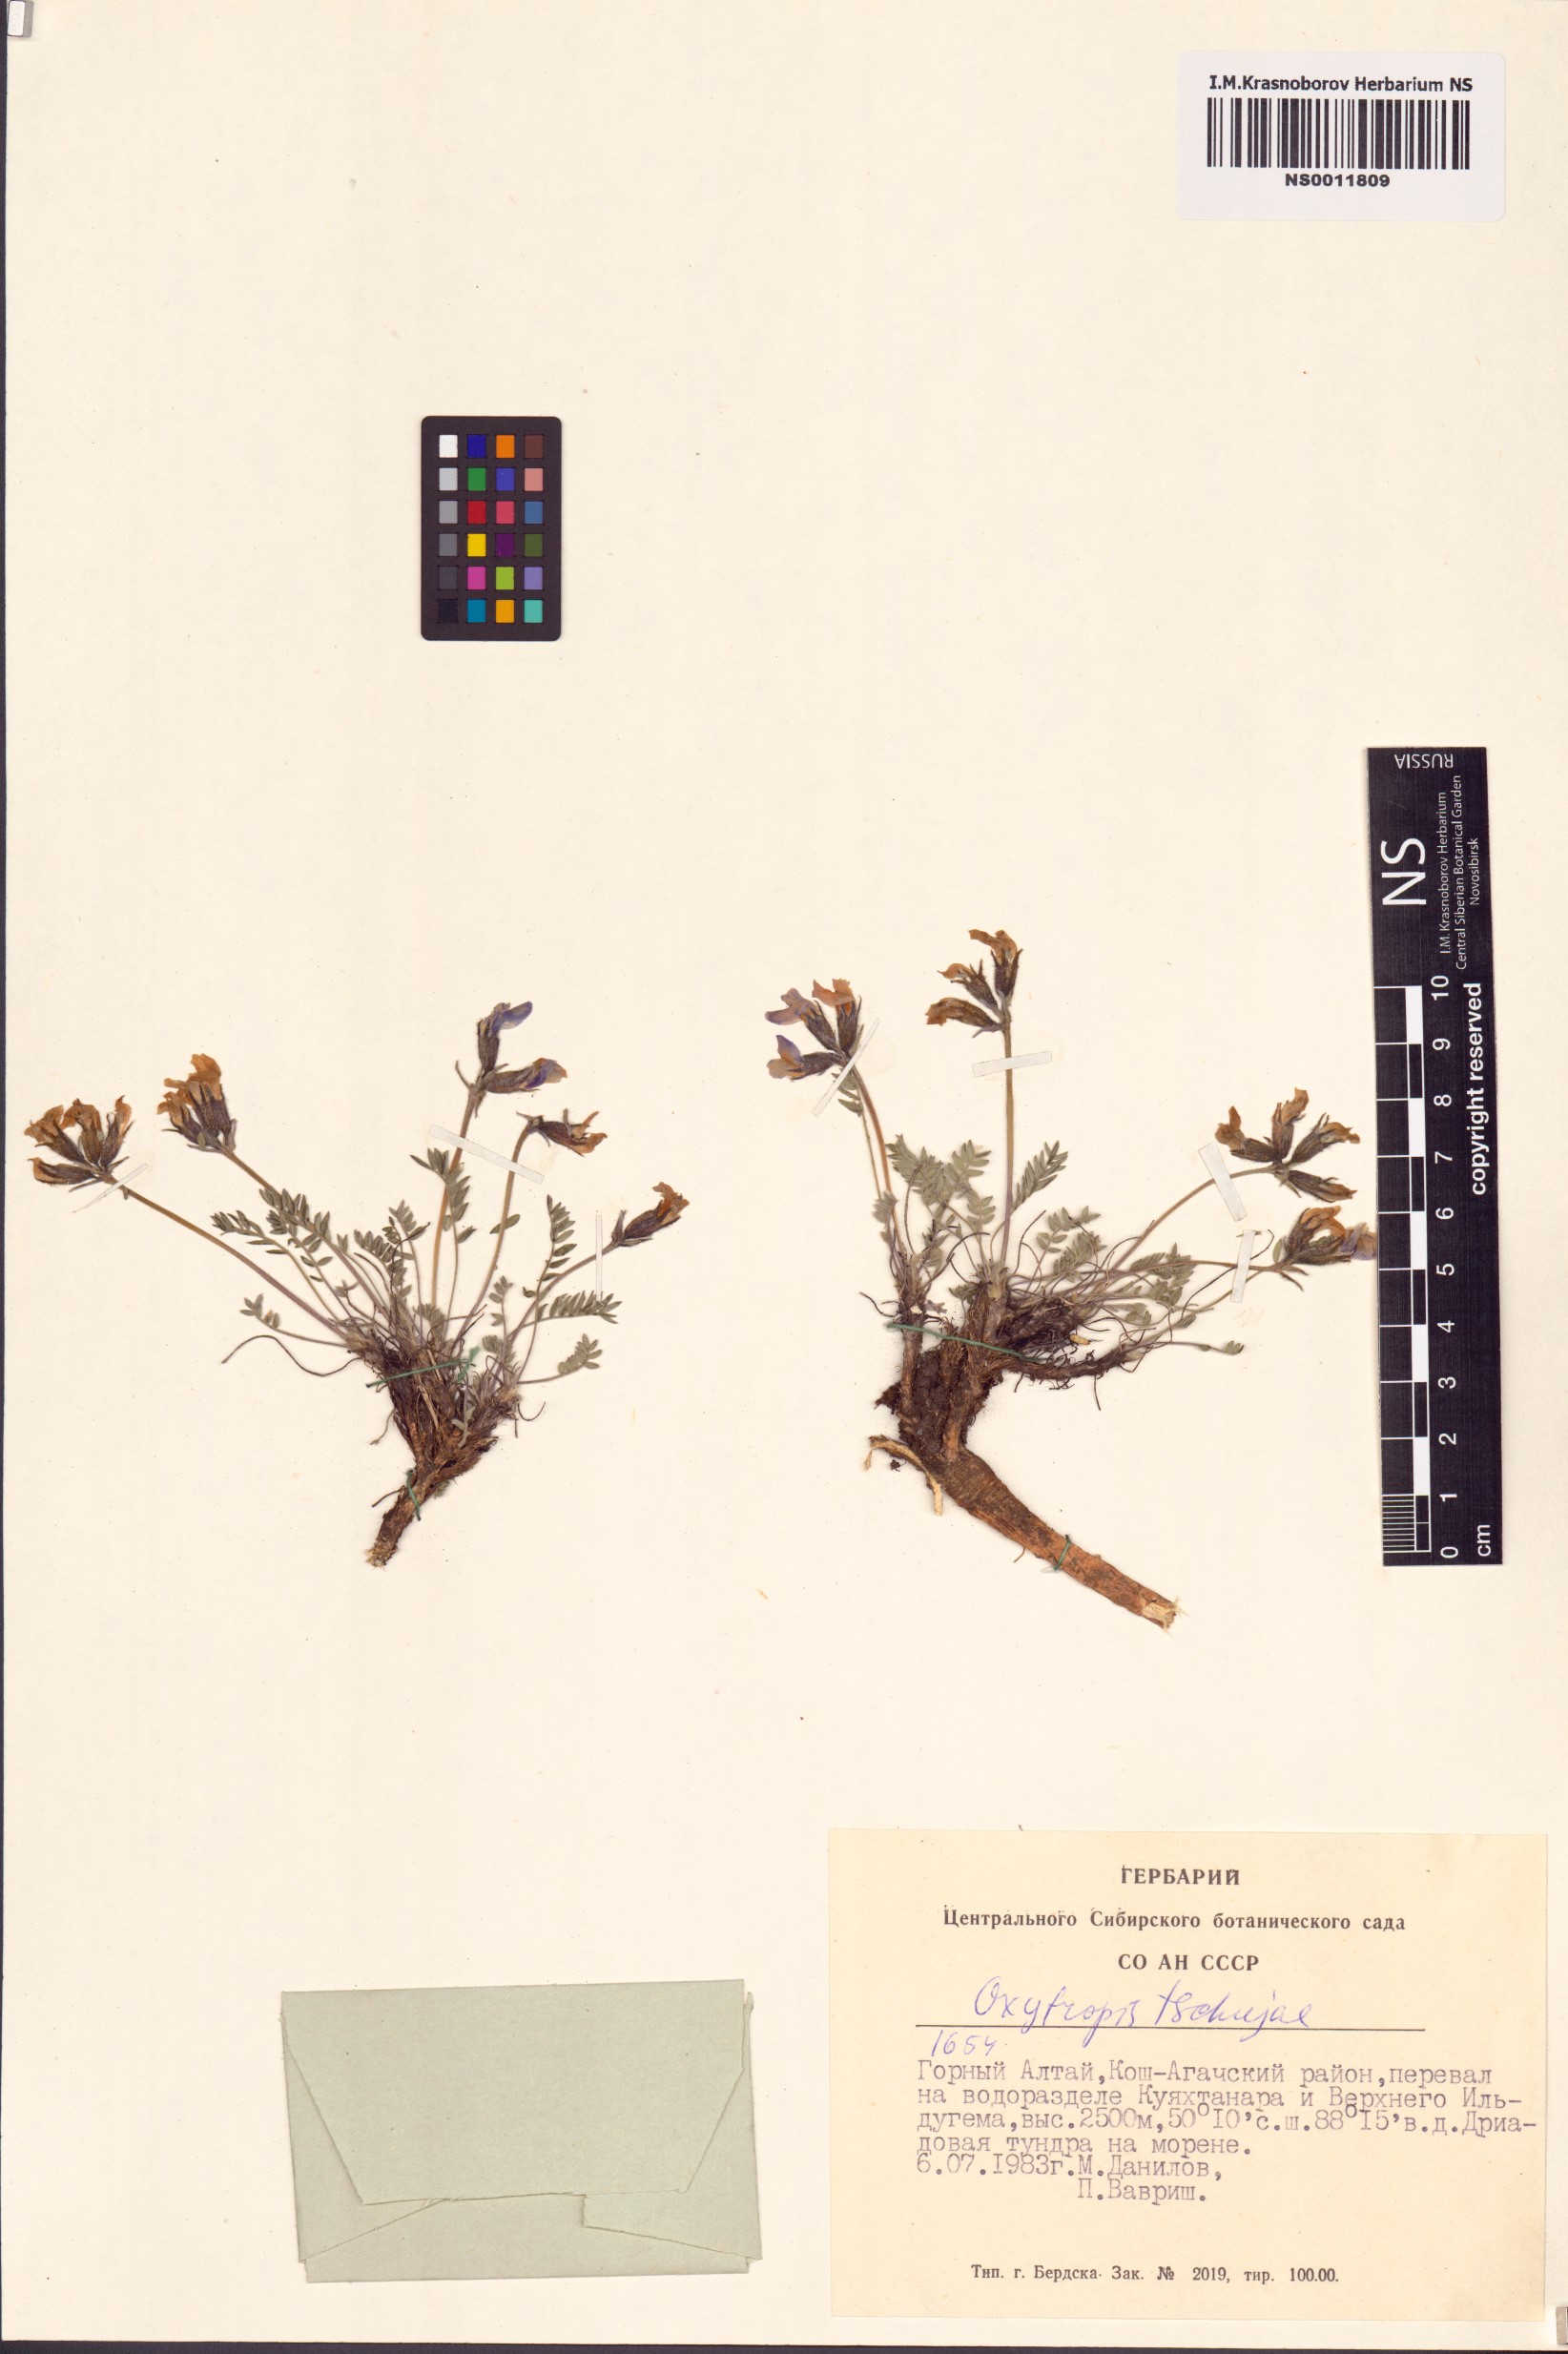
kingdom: Plantae
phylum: Tracheophyta
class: Magnoliopsida
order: Fabales
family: Fabaceae
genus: Oxytropis
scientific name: Oxytropis tschujae
